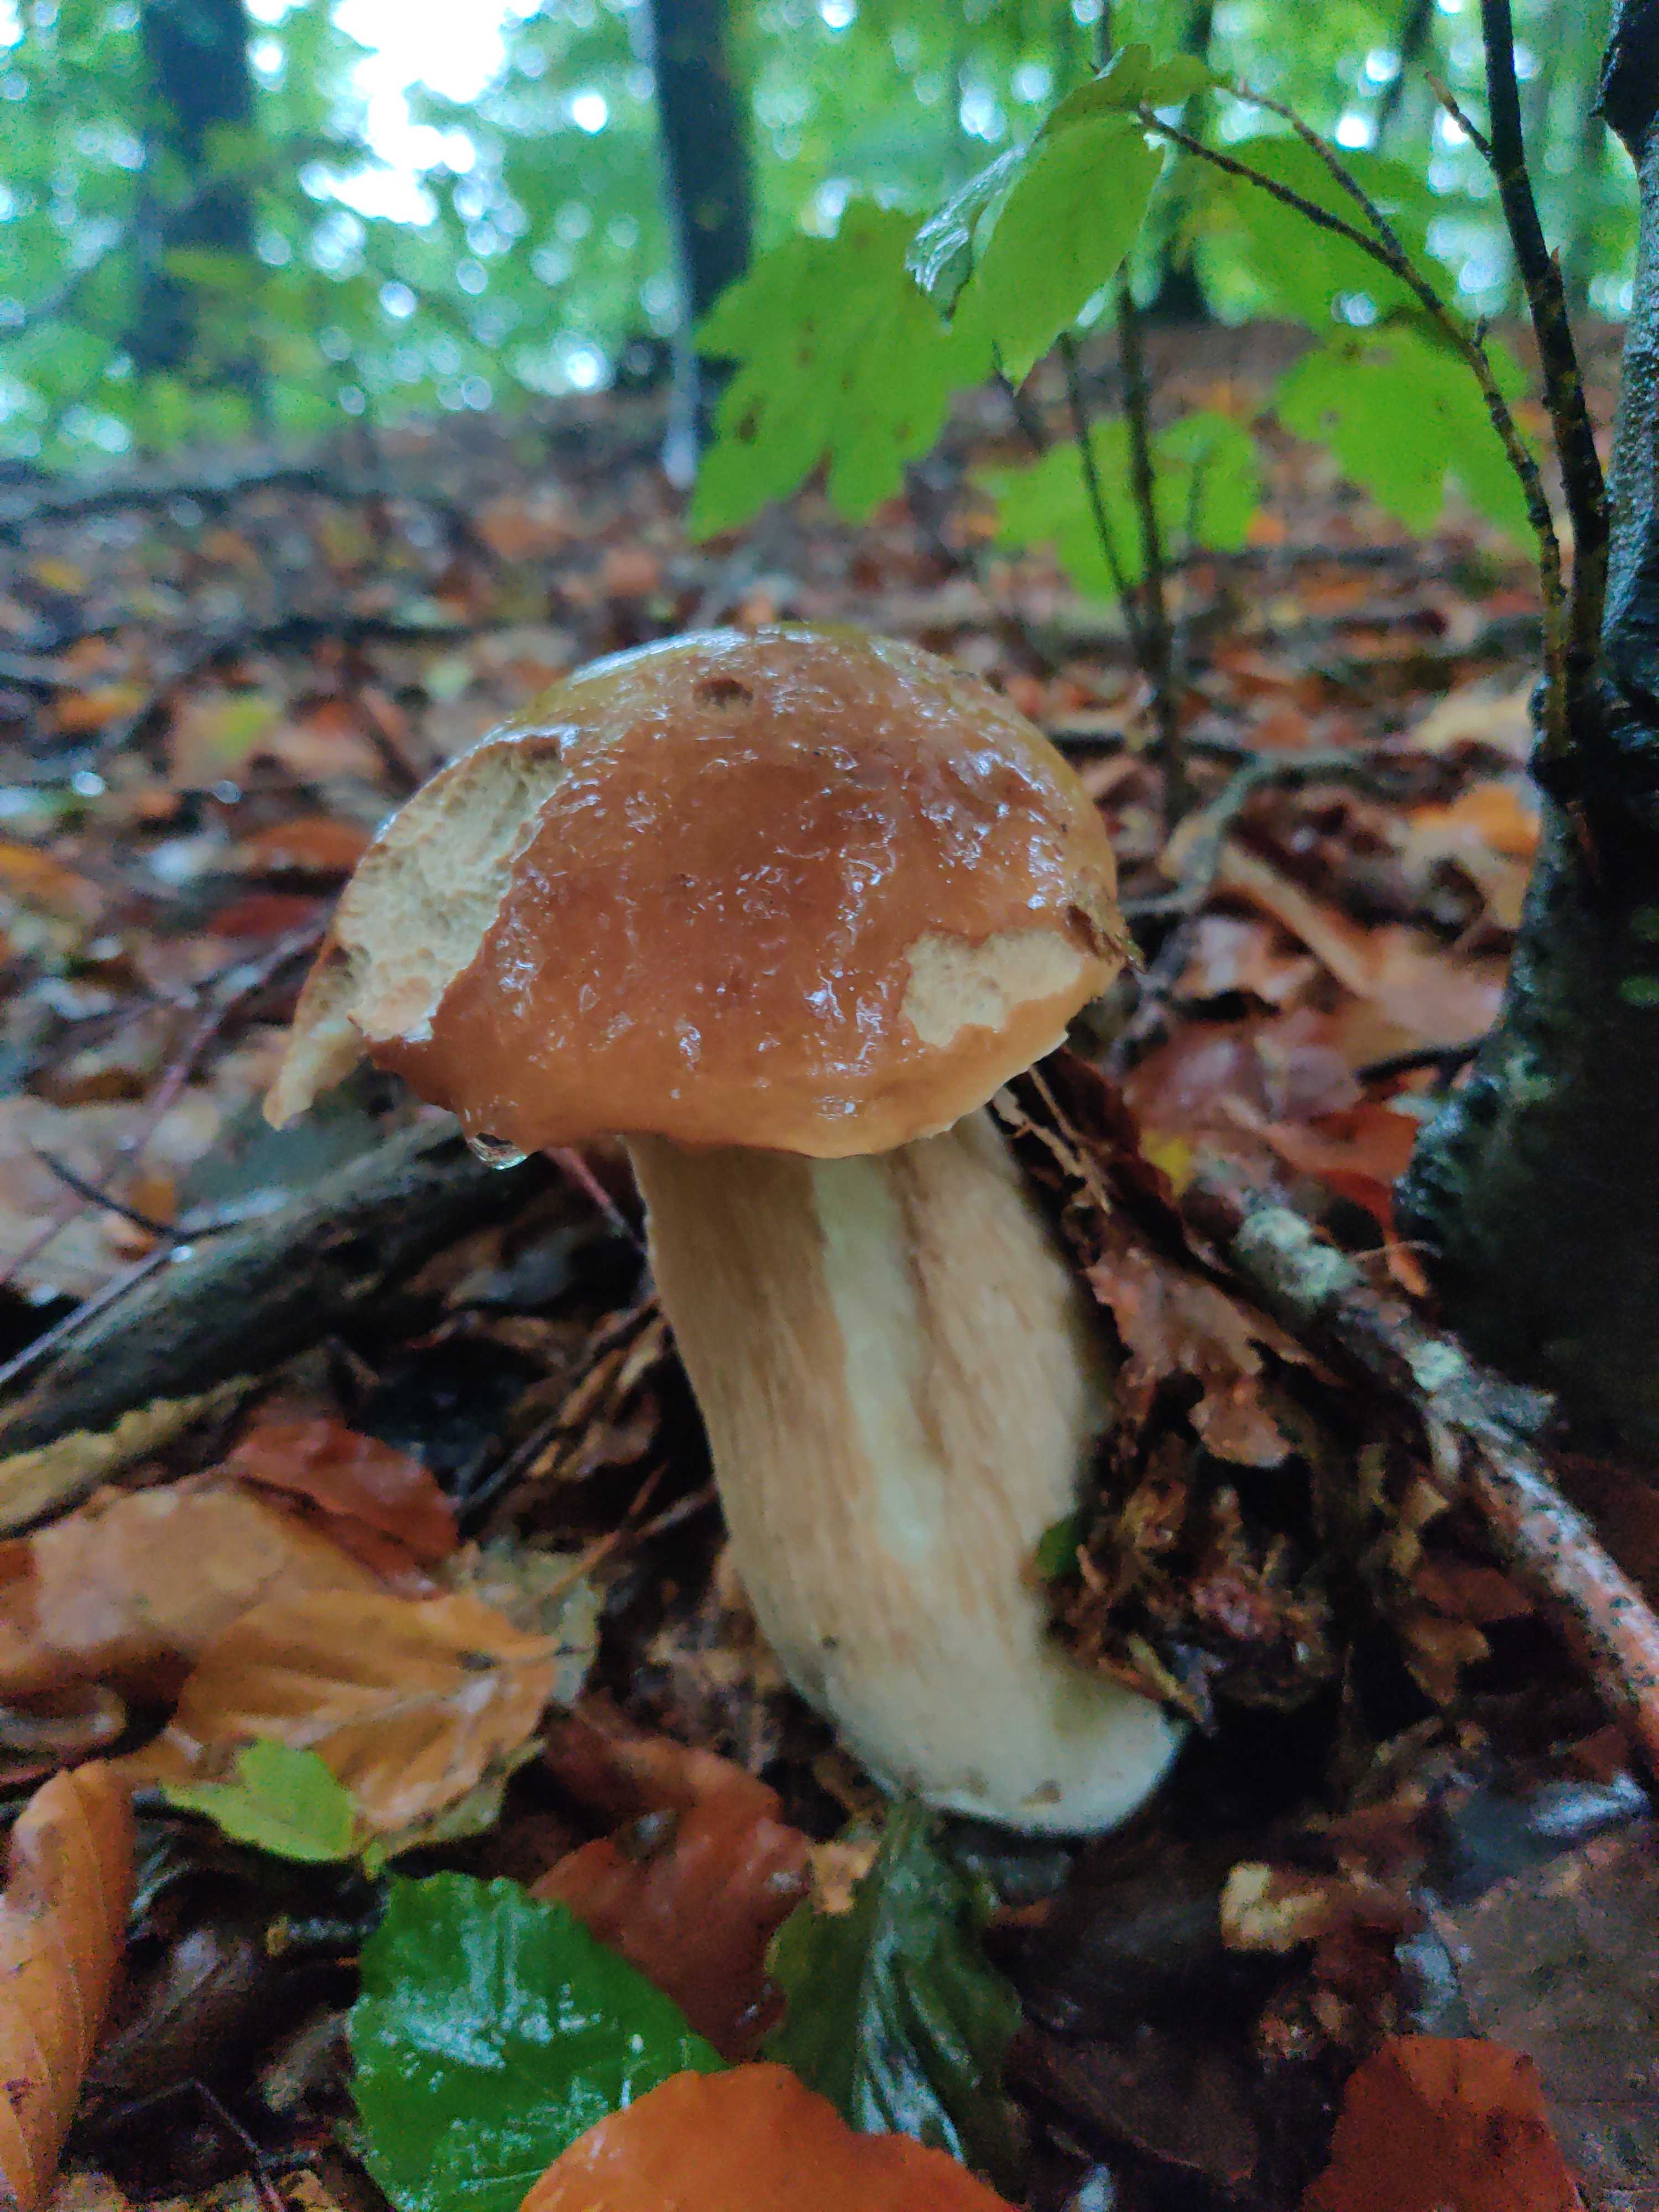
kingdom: Fungi
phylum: Basidiomycota
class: Agaricomycetes
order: Boletales
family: Boletaceae
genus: Boletus
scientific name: Boletus edulis
